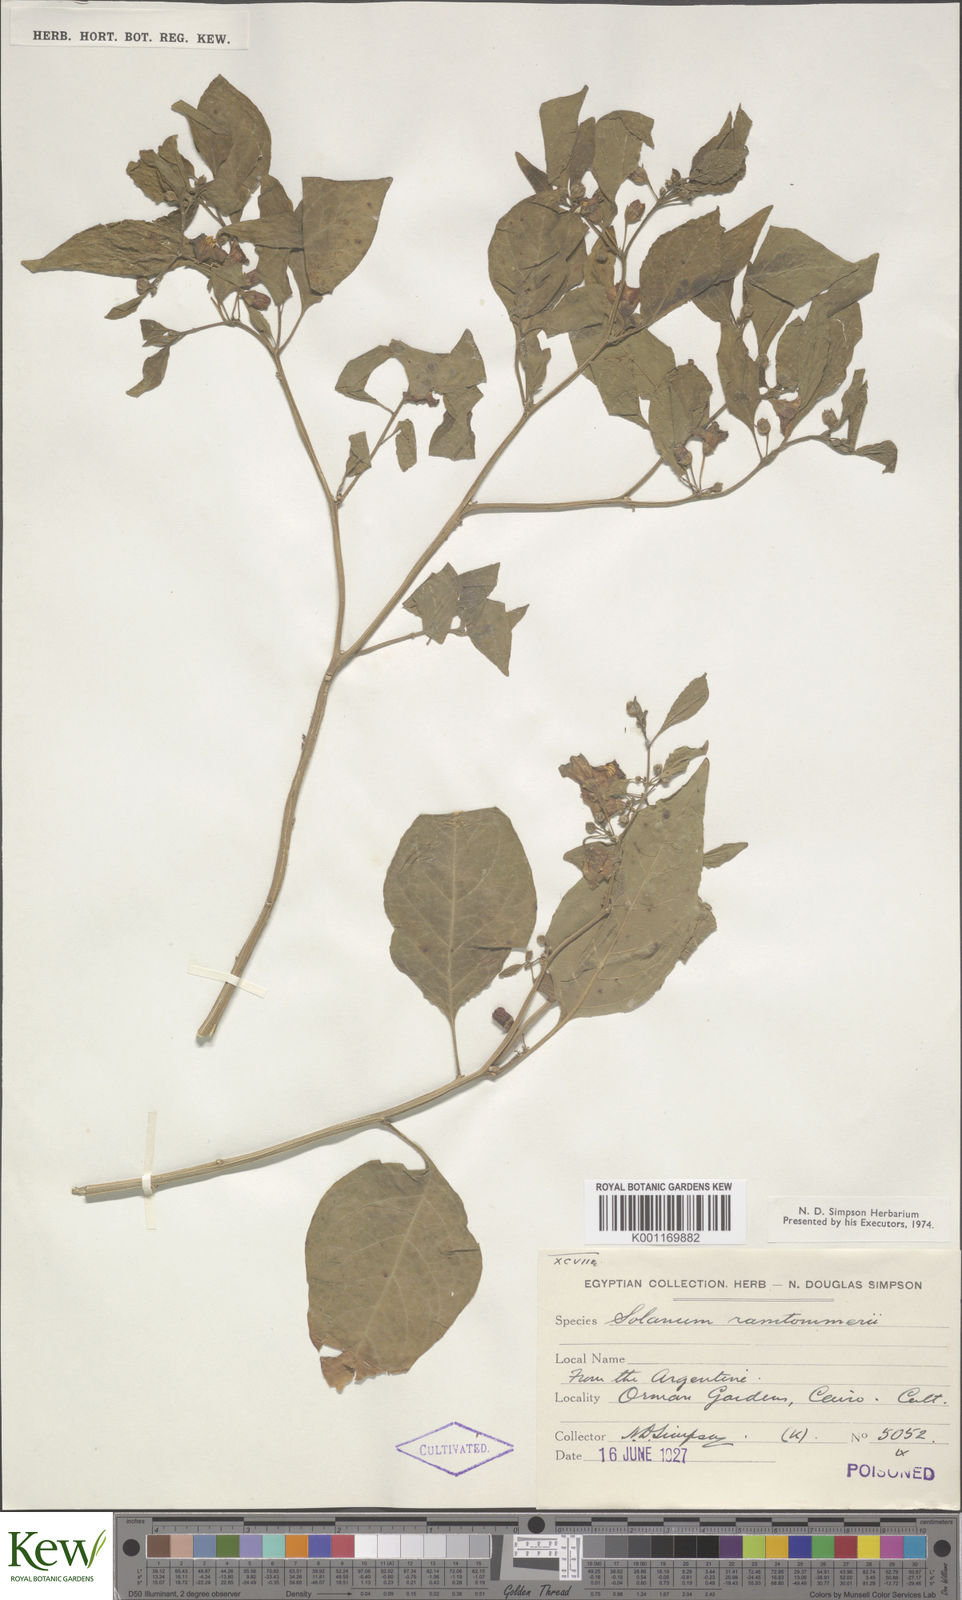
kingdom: Plantae
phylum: Tracheophyta
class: Magnoliopsida
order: Solanales
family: Solanaceae
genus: Solanum
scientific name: Solanum
